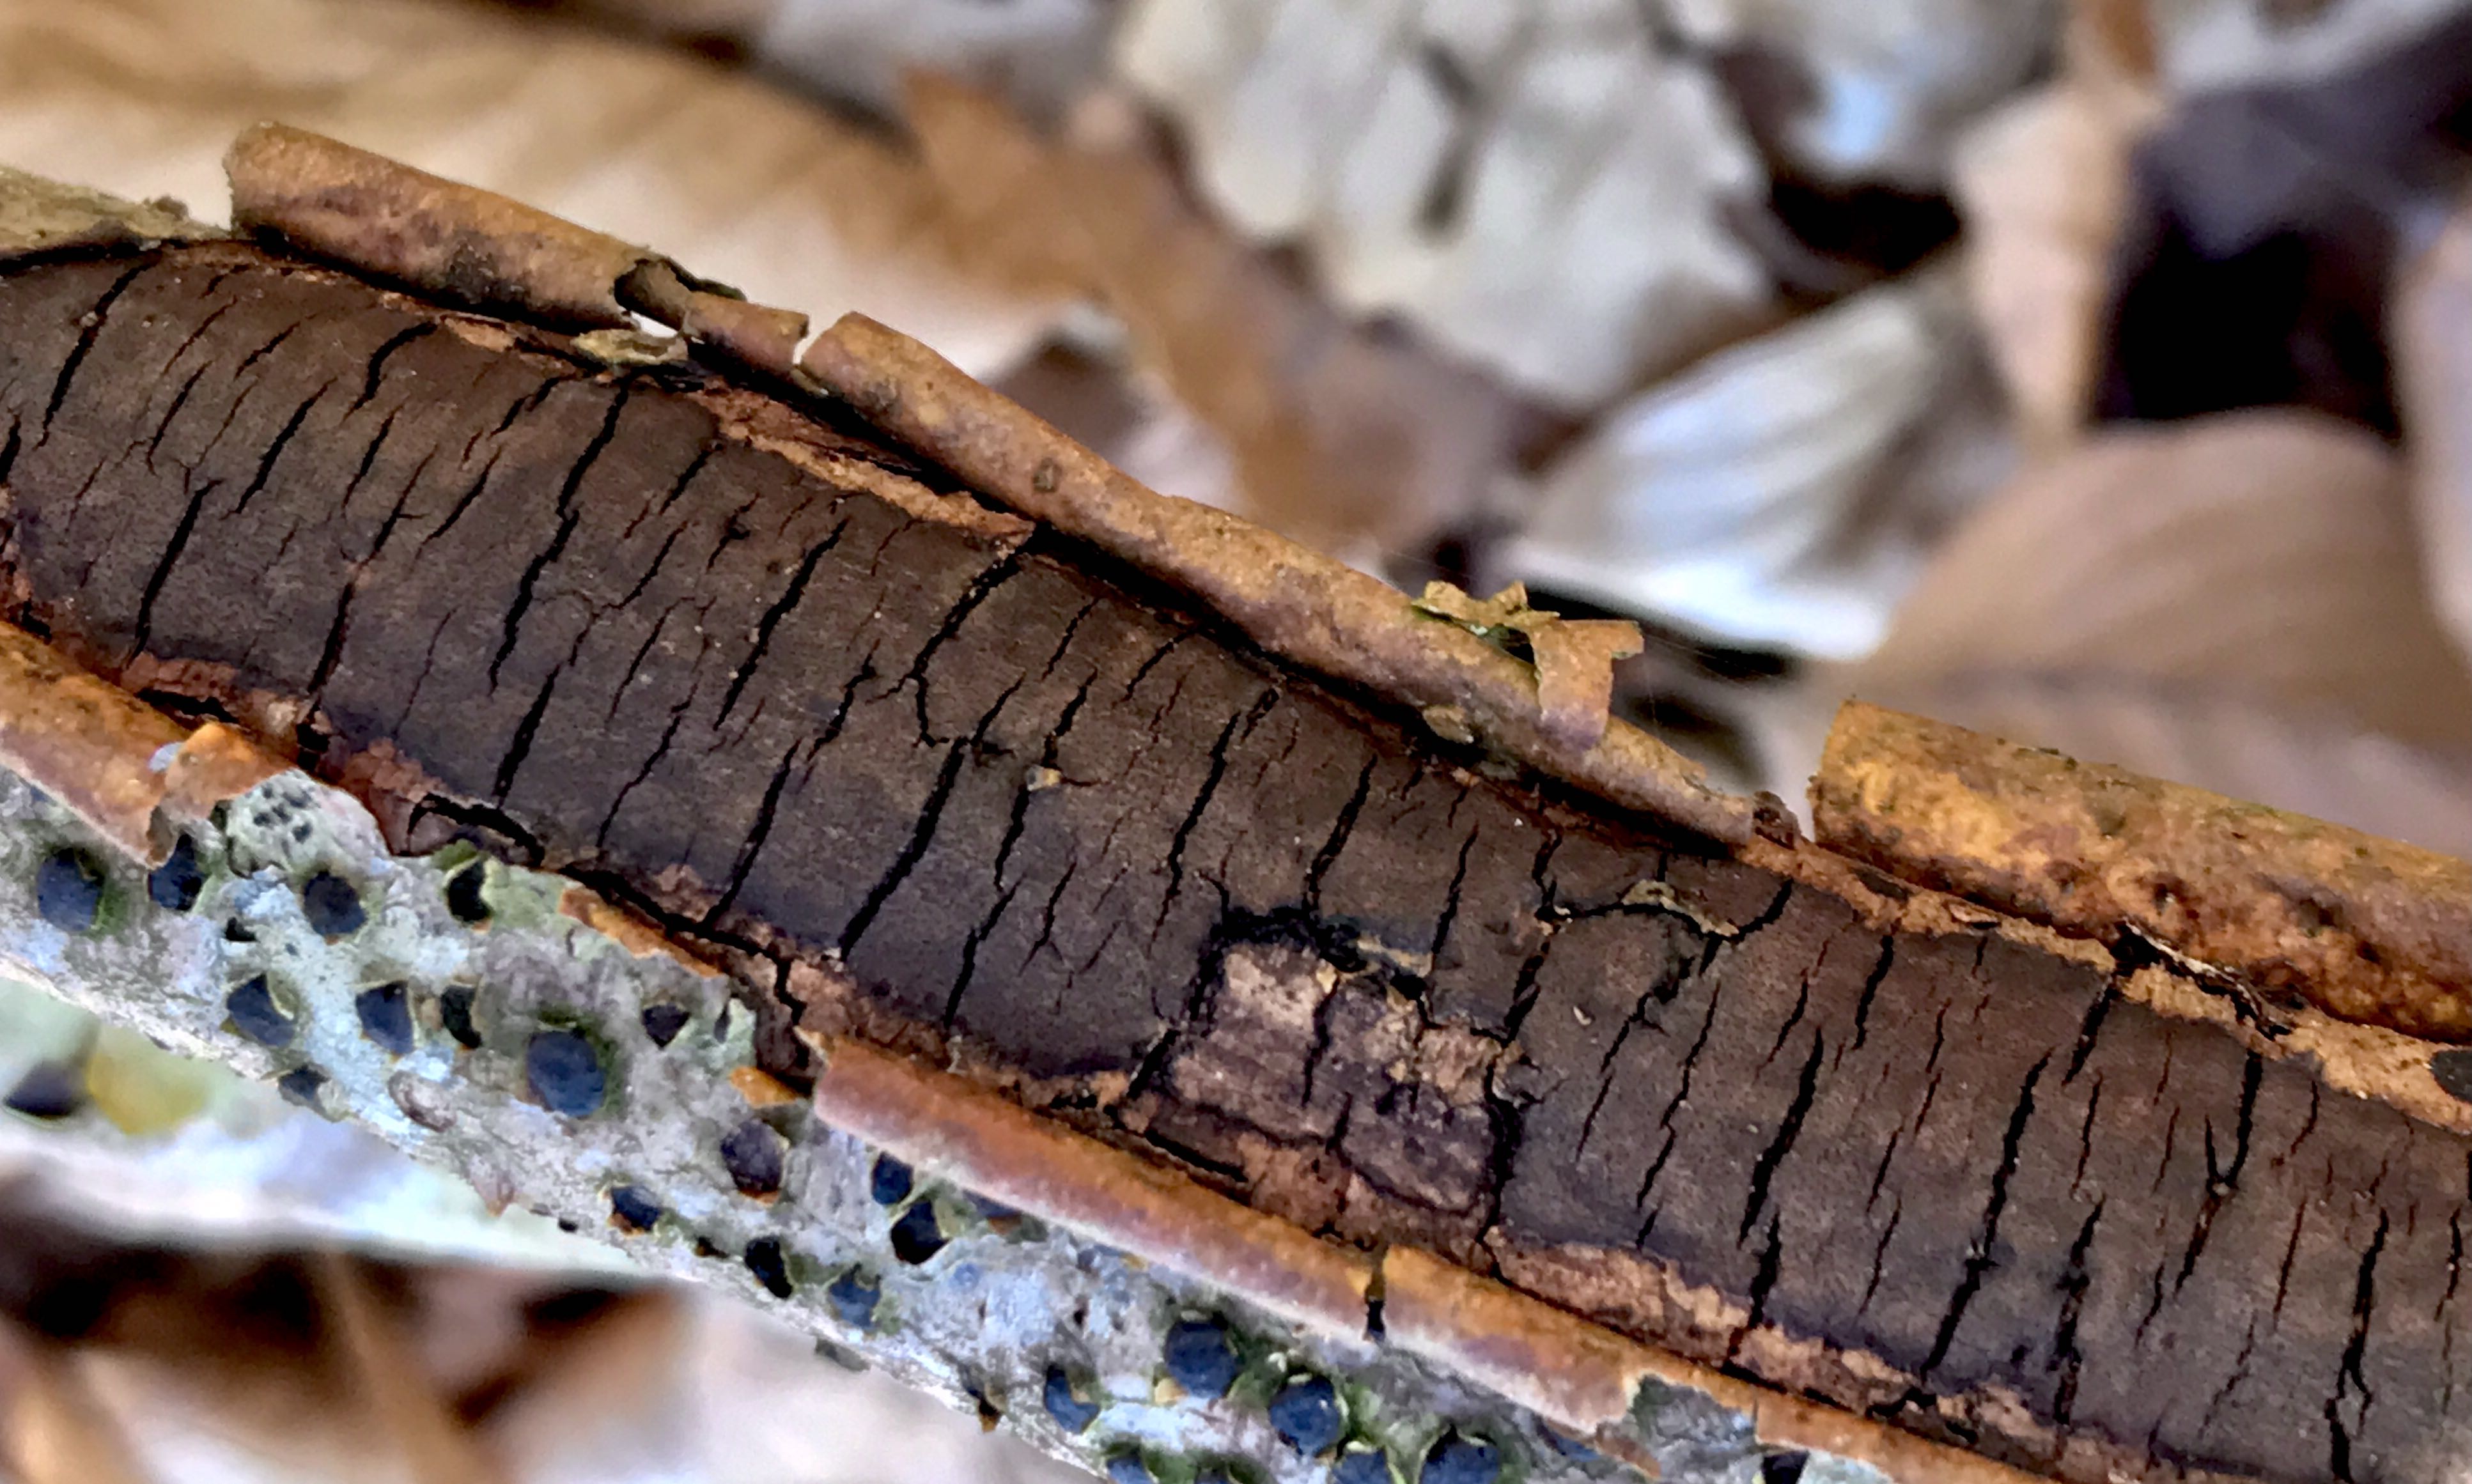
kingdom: Fungi
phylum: Ascomycota
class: Sordariomycetes
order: Xylariales
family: Diatrypaceae
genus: Diatrype
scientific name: Diatrype decorticata
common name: barksprænger-kulskorpe
